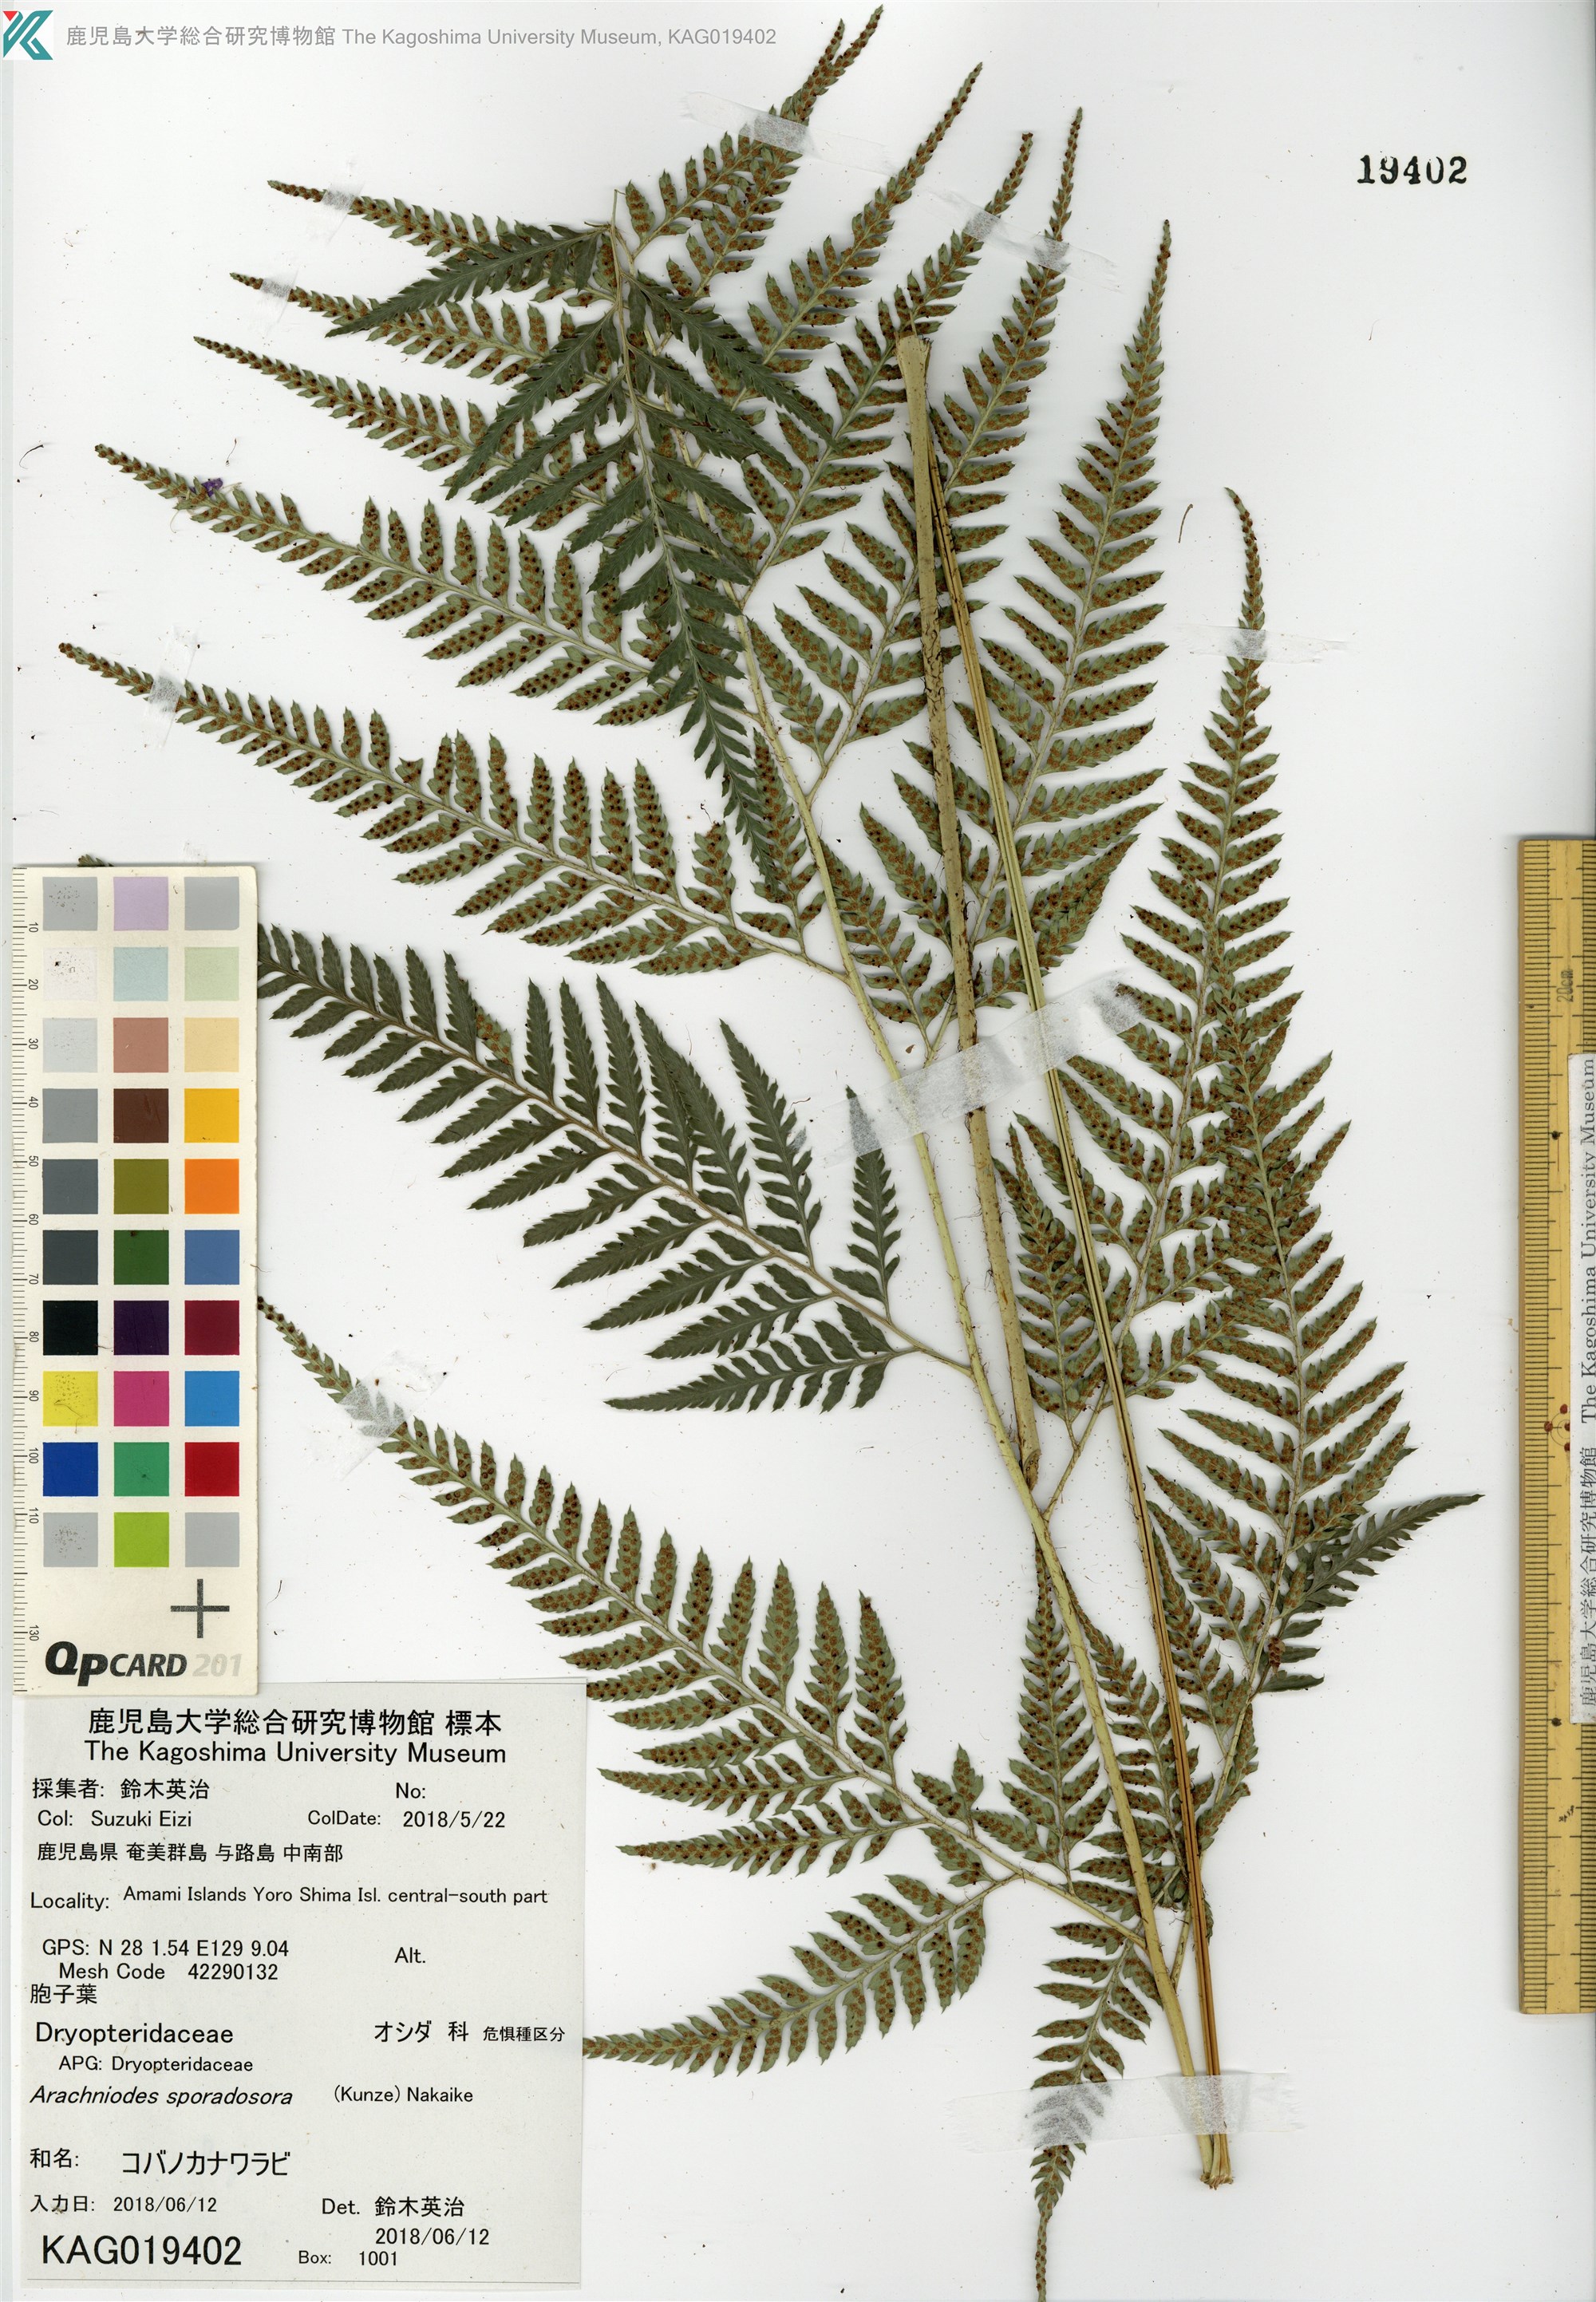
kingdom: Plantae
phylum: Tracheophyta
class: Polypodiopsida
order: Polypodiales
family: Dryopteridaceae
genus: Arachniodes
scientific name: Arachniodes cornu-cervi
